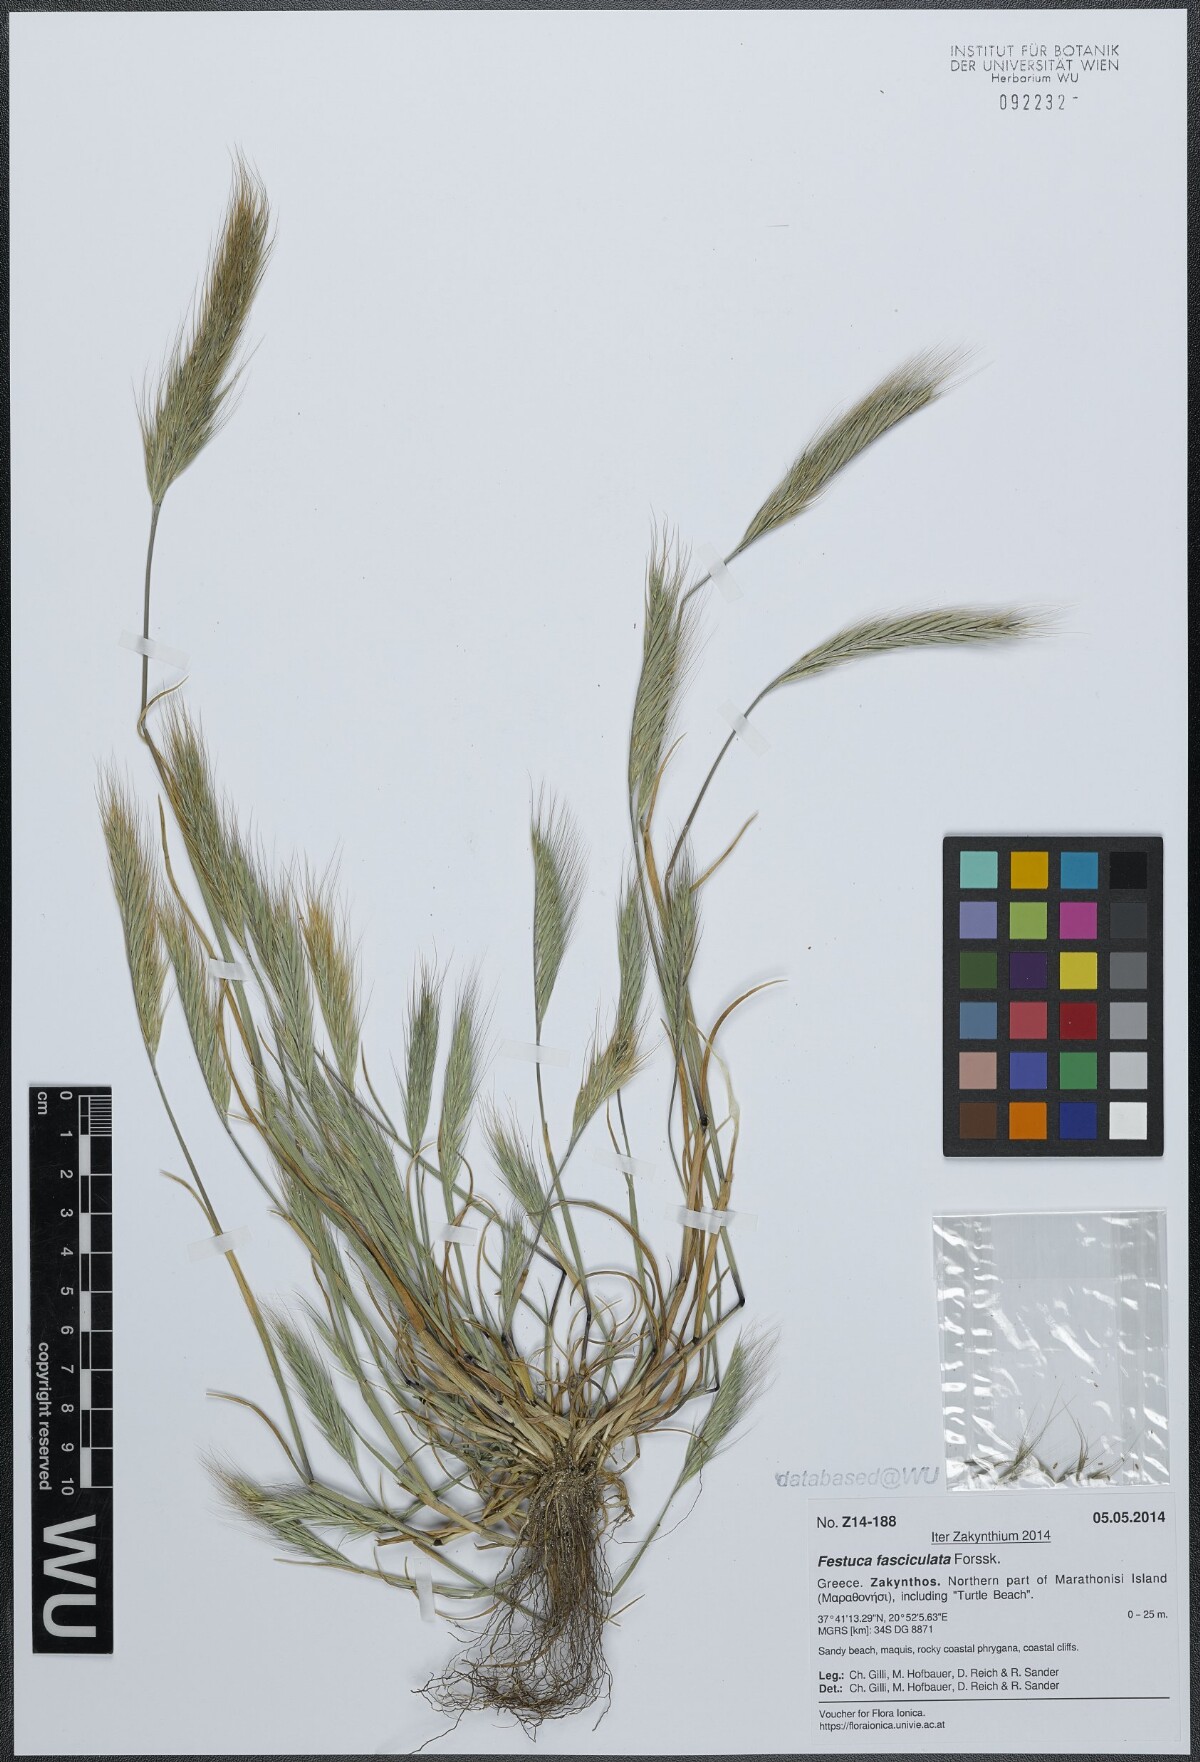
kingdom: Plantae
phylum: Tracheophyta
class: Liliopsida
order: Poales
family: Poaceae
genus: Festuca
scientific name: Festuca fasciculata
